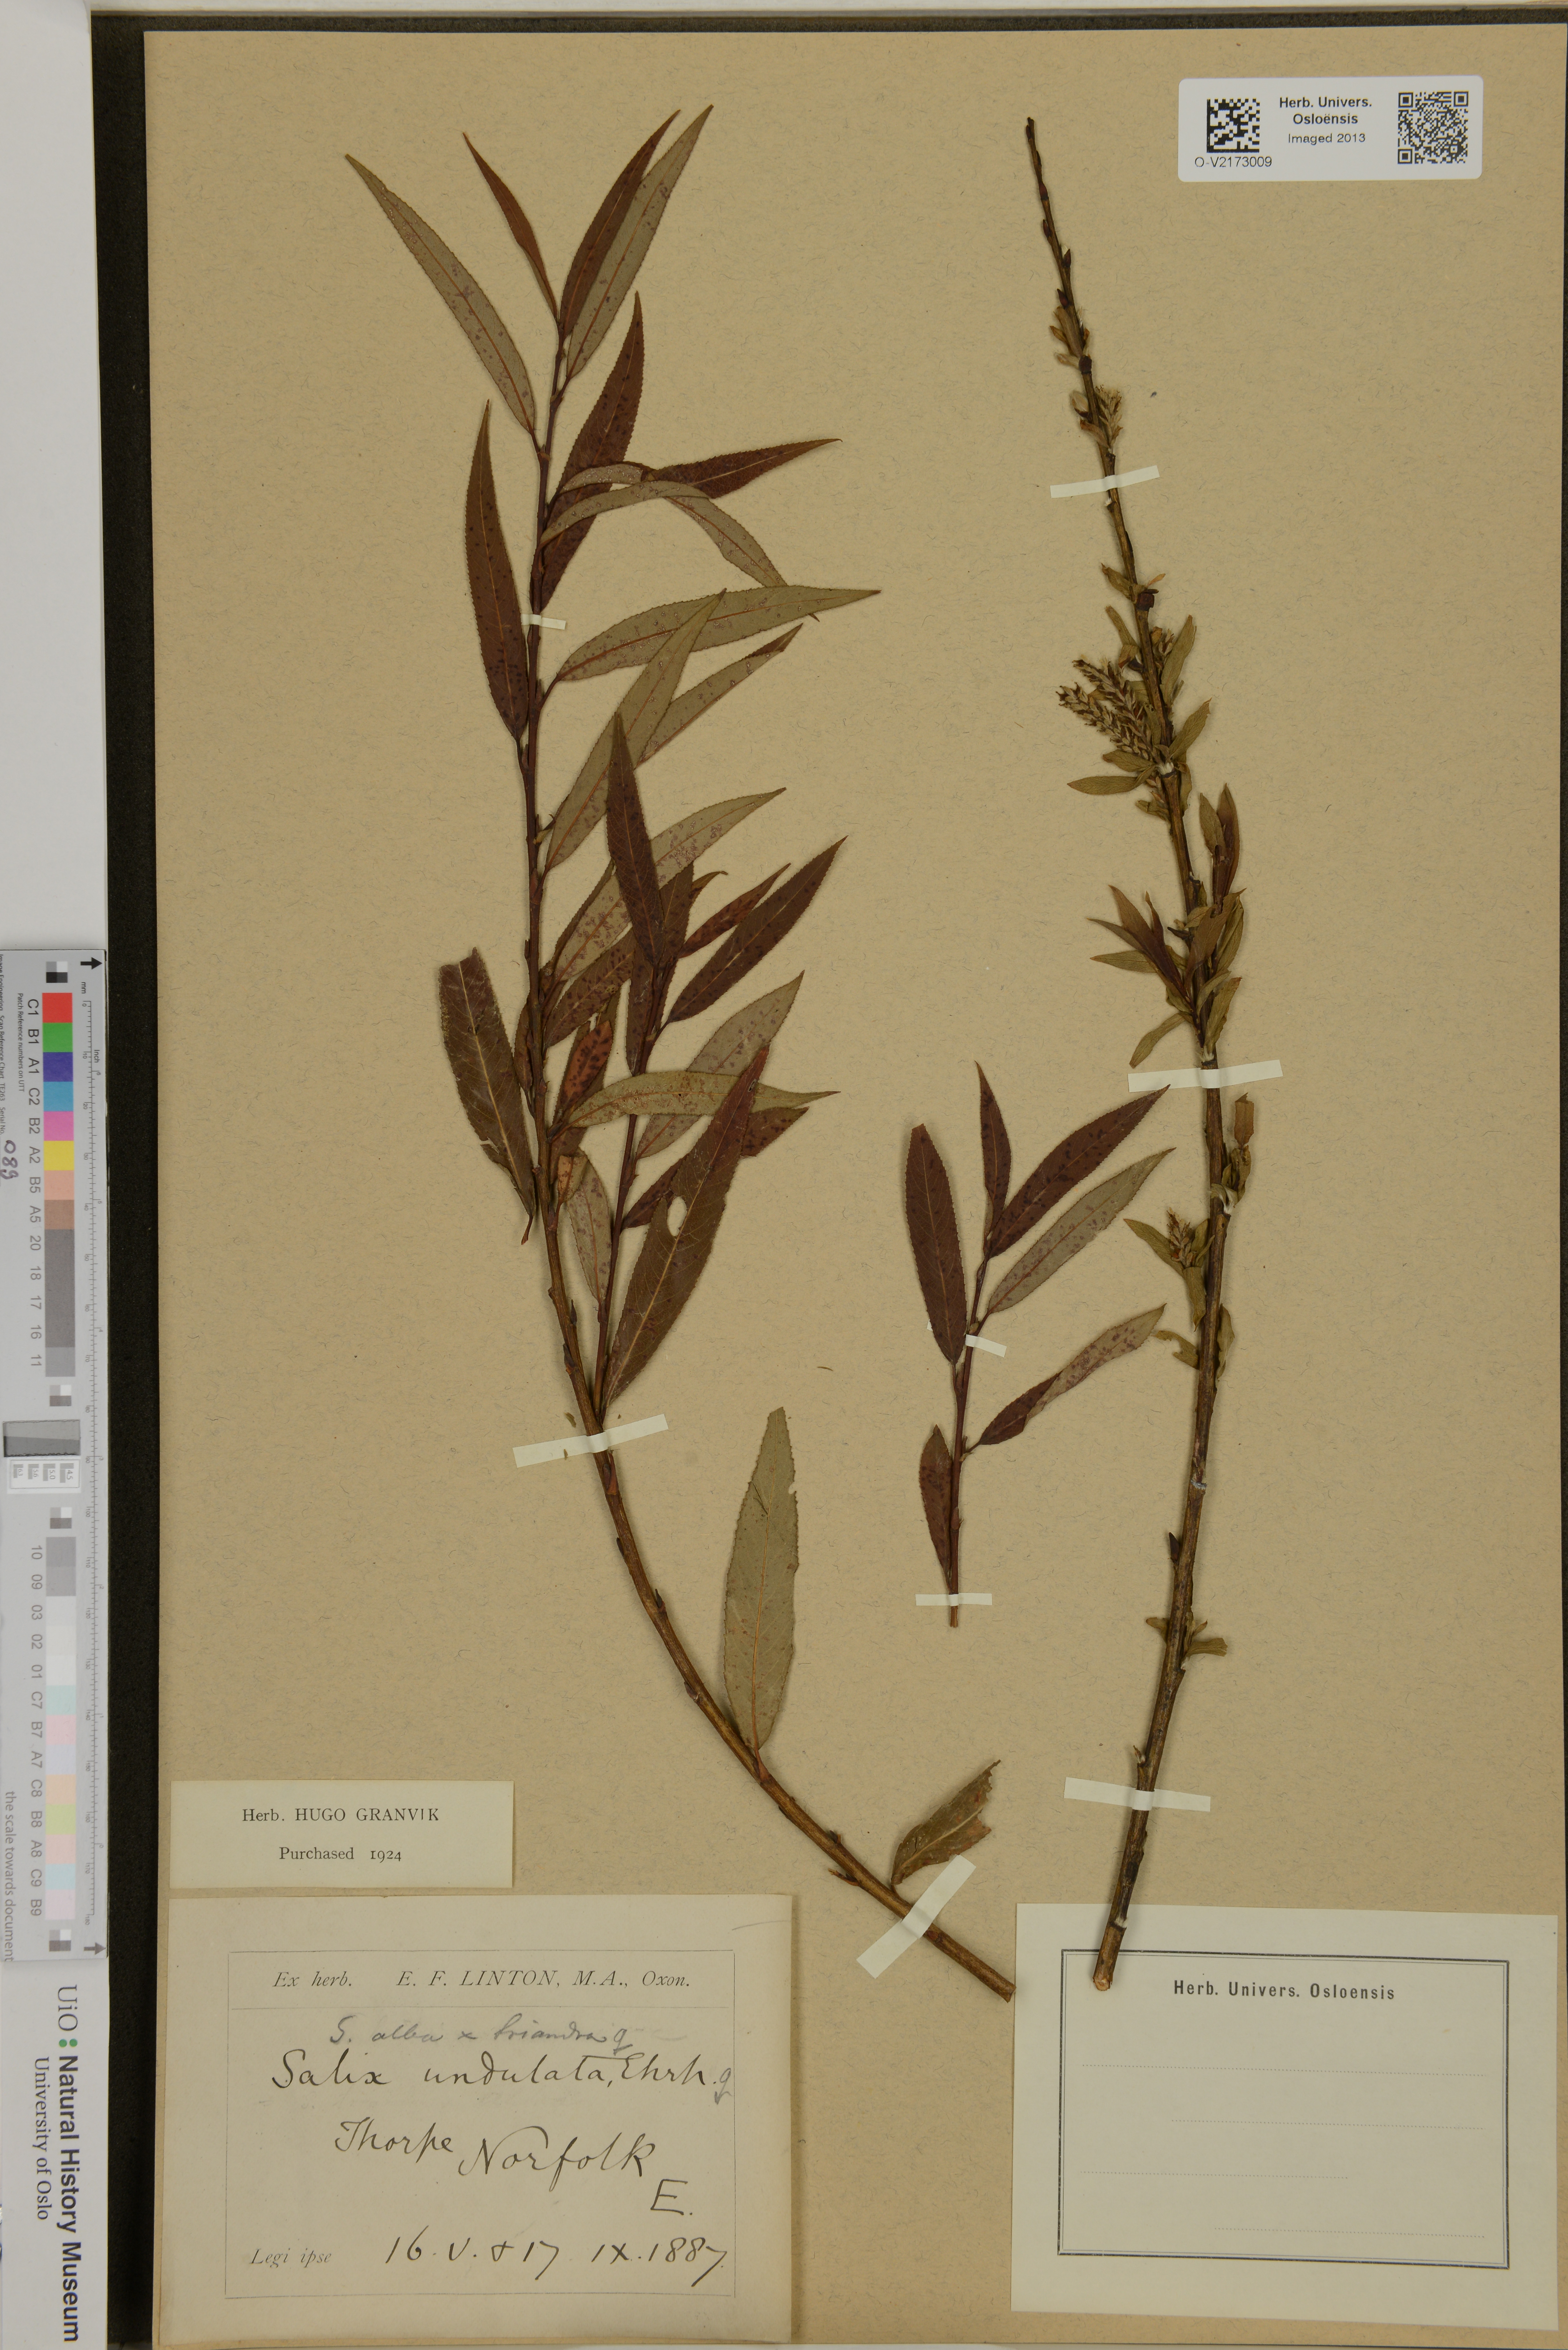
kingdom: Plantae
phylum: Tracheophyta
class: Magnoliopsida
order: Malpighiales
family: Salicaceae
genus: Salix
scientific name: Salix
